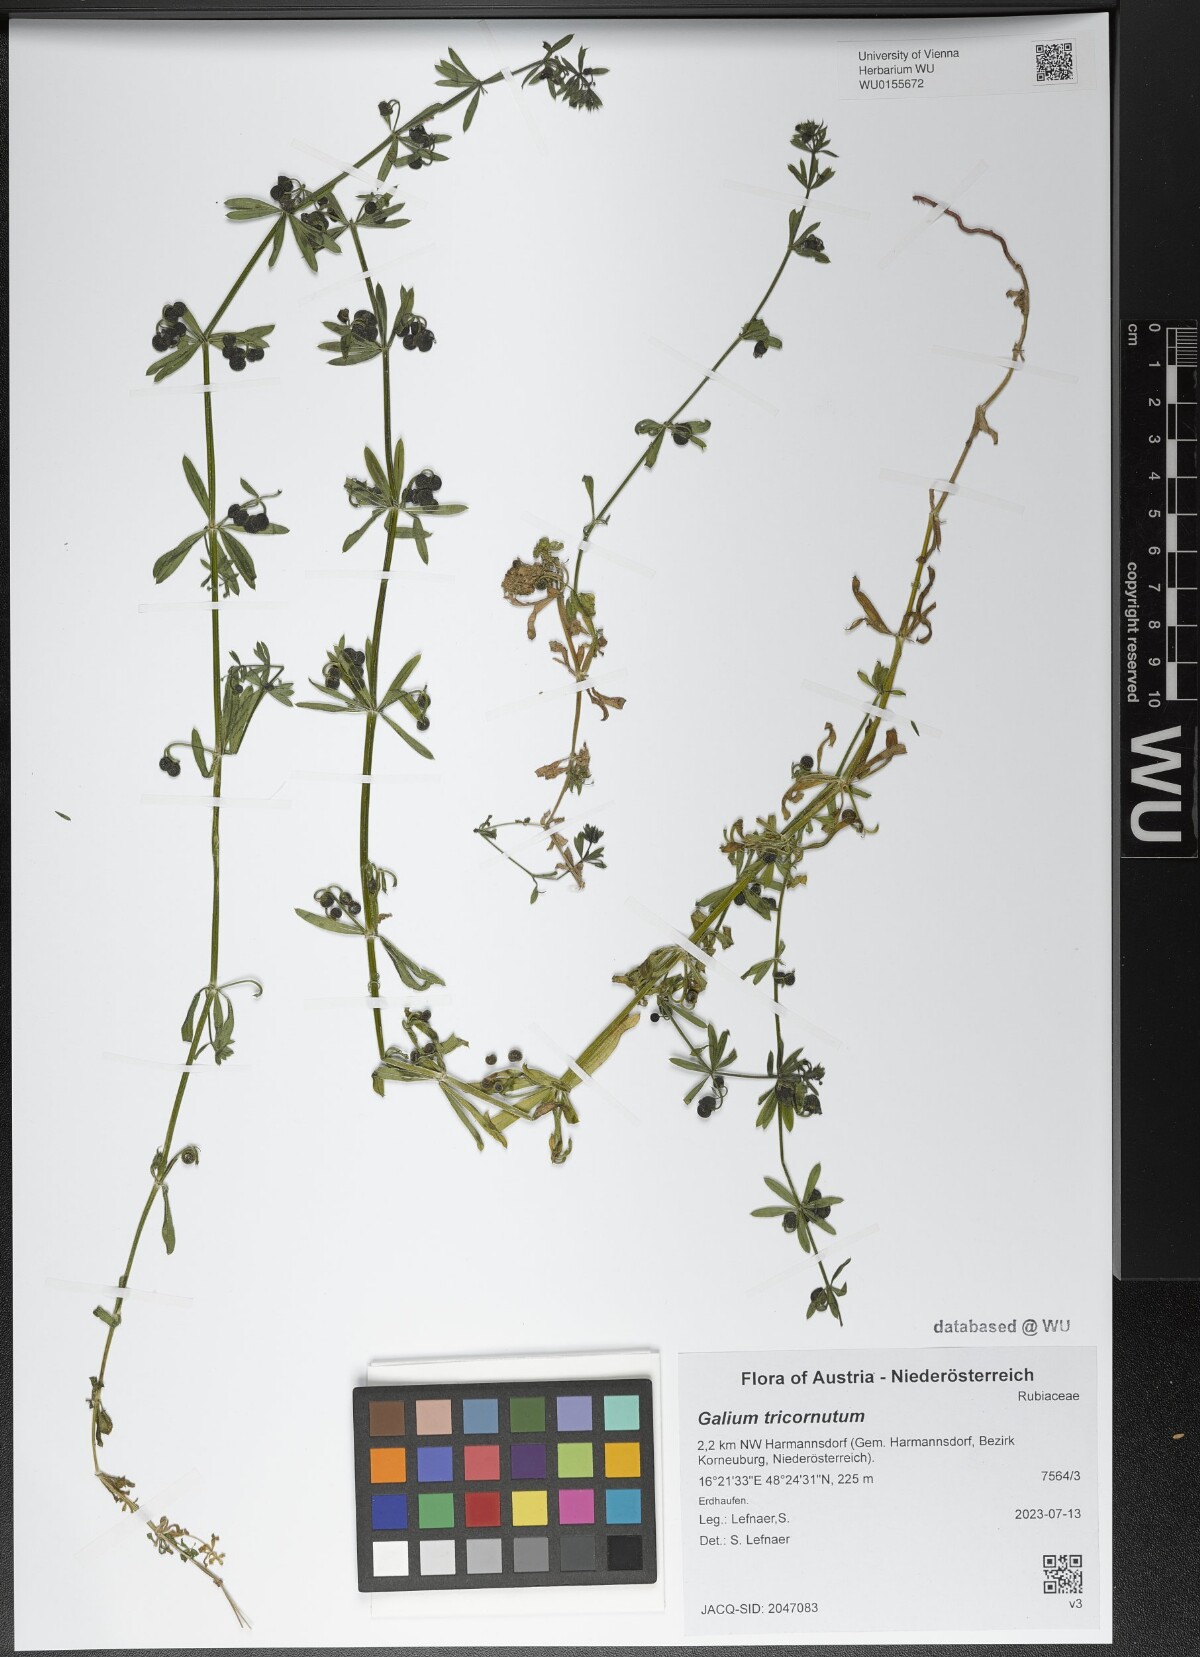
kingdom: Plantae
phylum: Tracheophyta
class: Magnoliopsida
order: Gentianales
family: Rubiaceae
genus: Galium
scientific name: Galium tricornutum
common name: Corn cleavers
